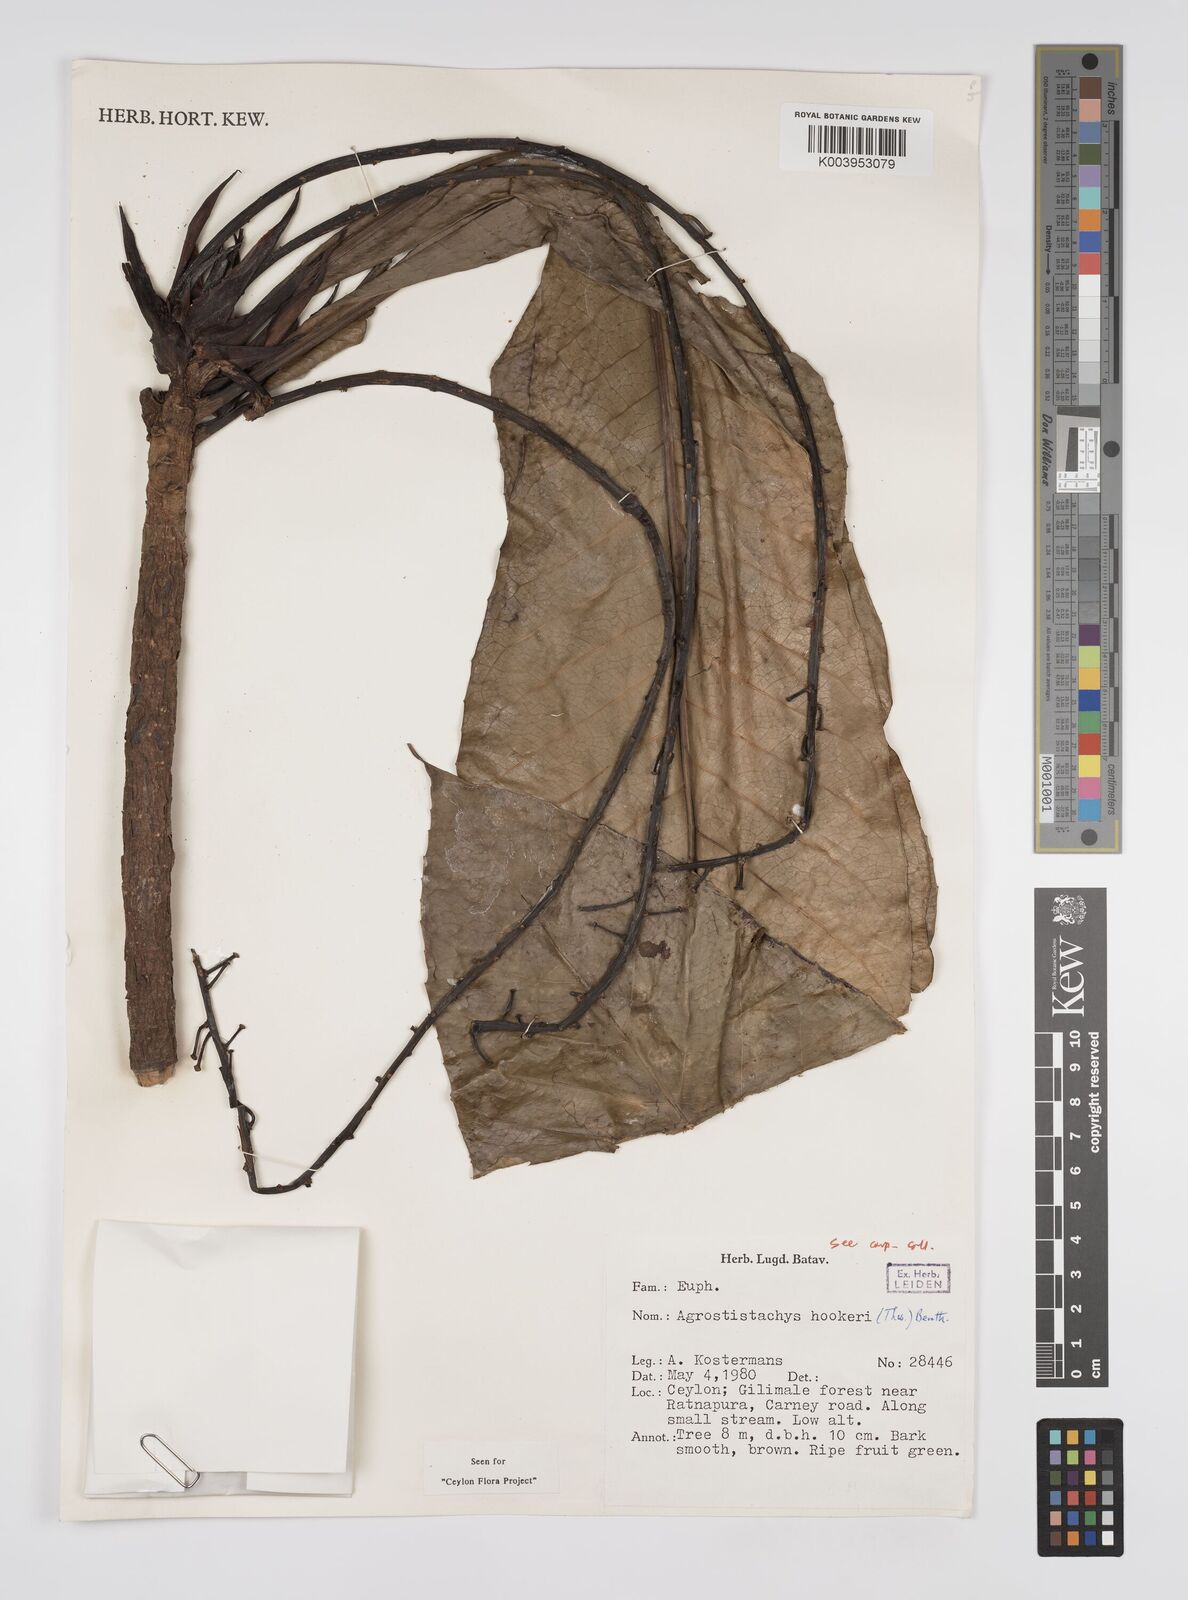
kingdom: Plantae
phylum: Tracheophyta
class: Magnoliopsida
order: Malpighiales
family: Euphorbiaceae
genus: Agrostistachys
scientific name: Agrostistachys hookeri
